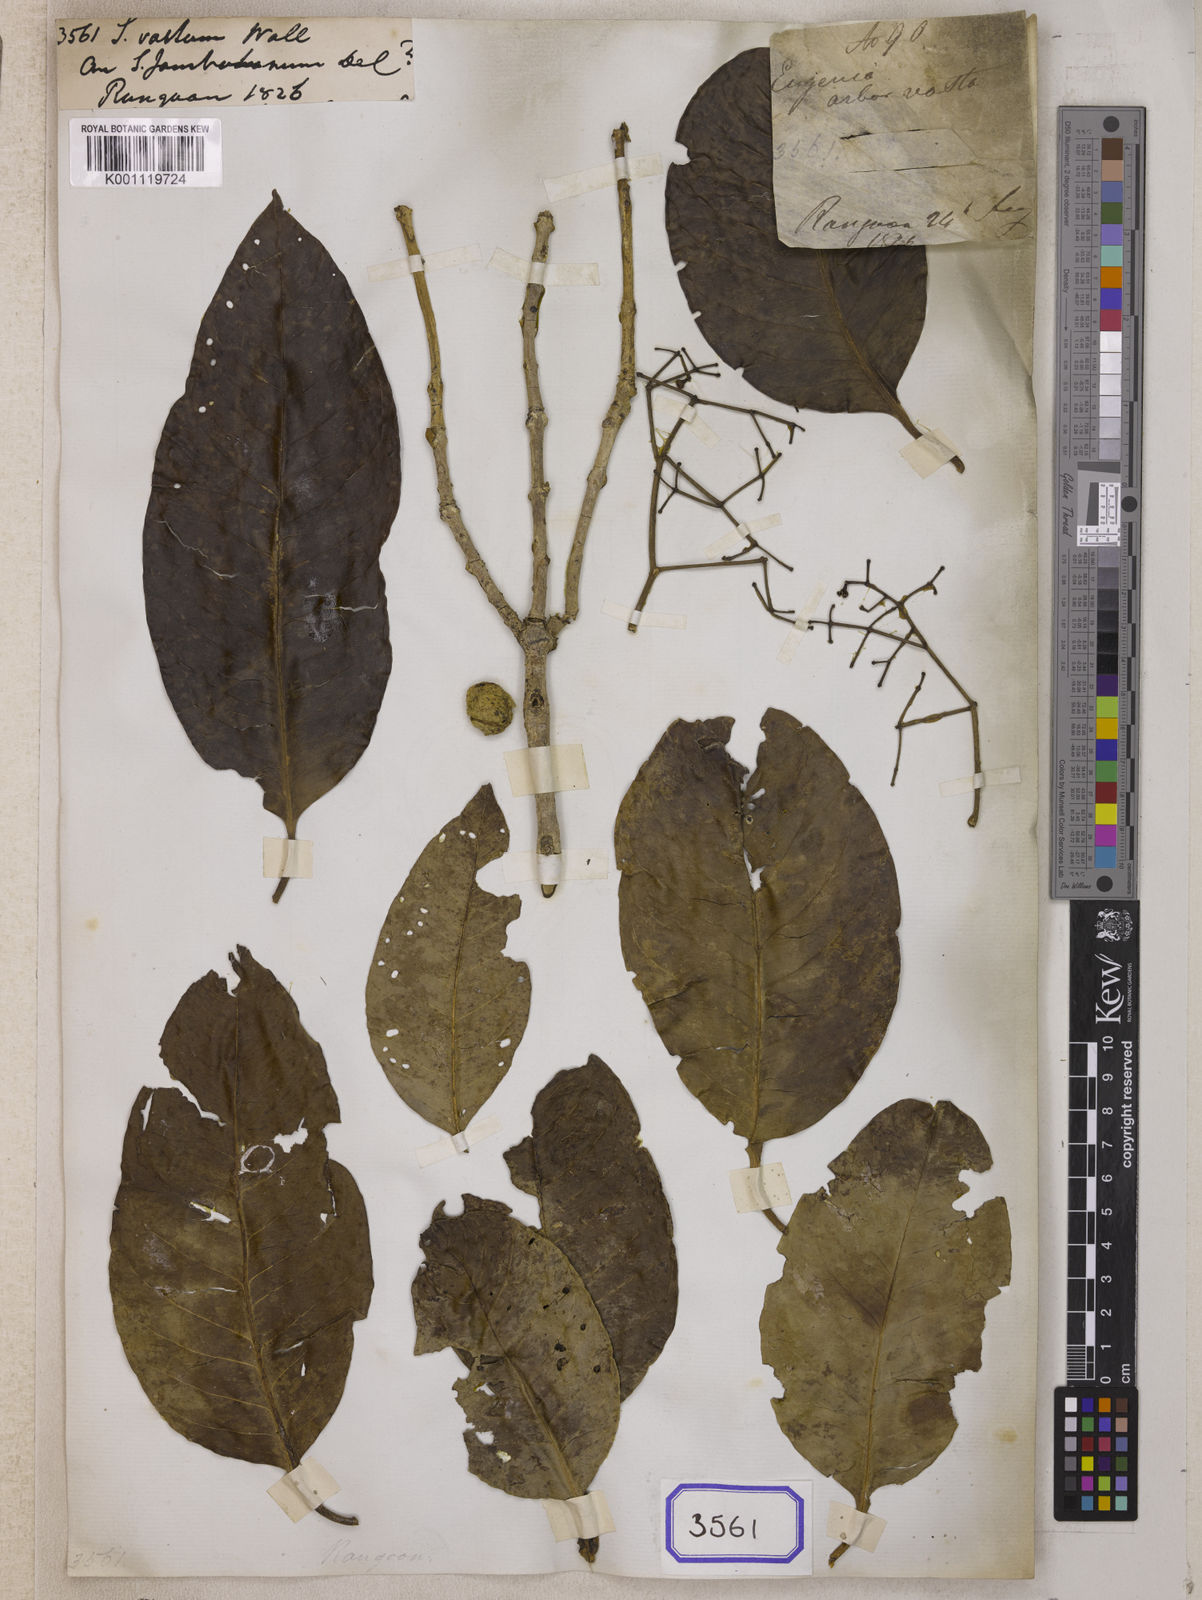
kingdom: Plantae
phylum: Tracheophyta
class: Magnoliopsida
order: Myrtales
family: Myrtaceae
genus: Syzygium
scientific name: Syzygium
